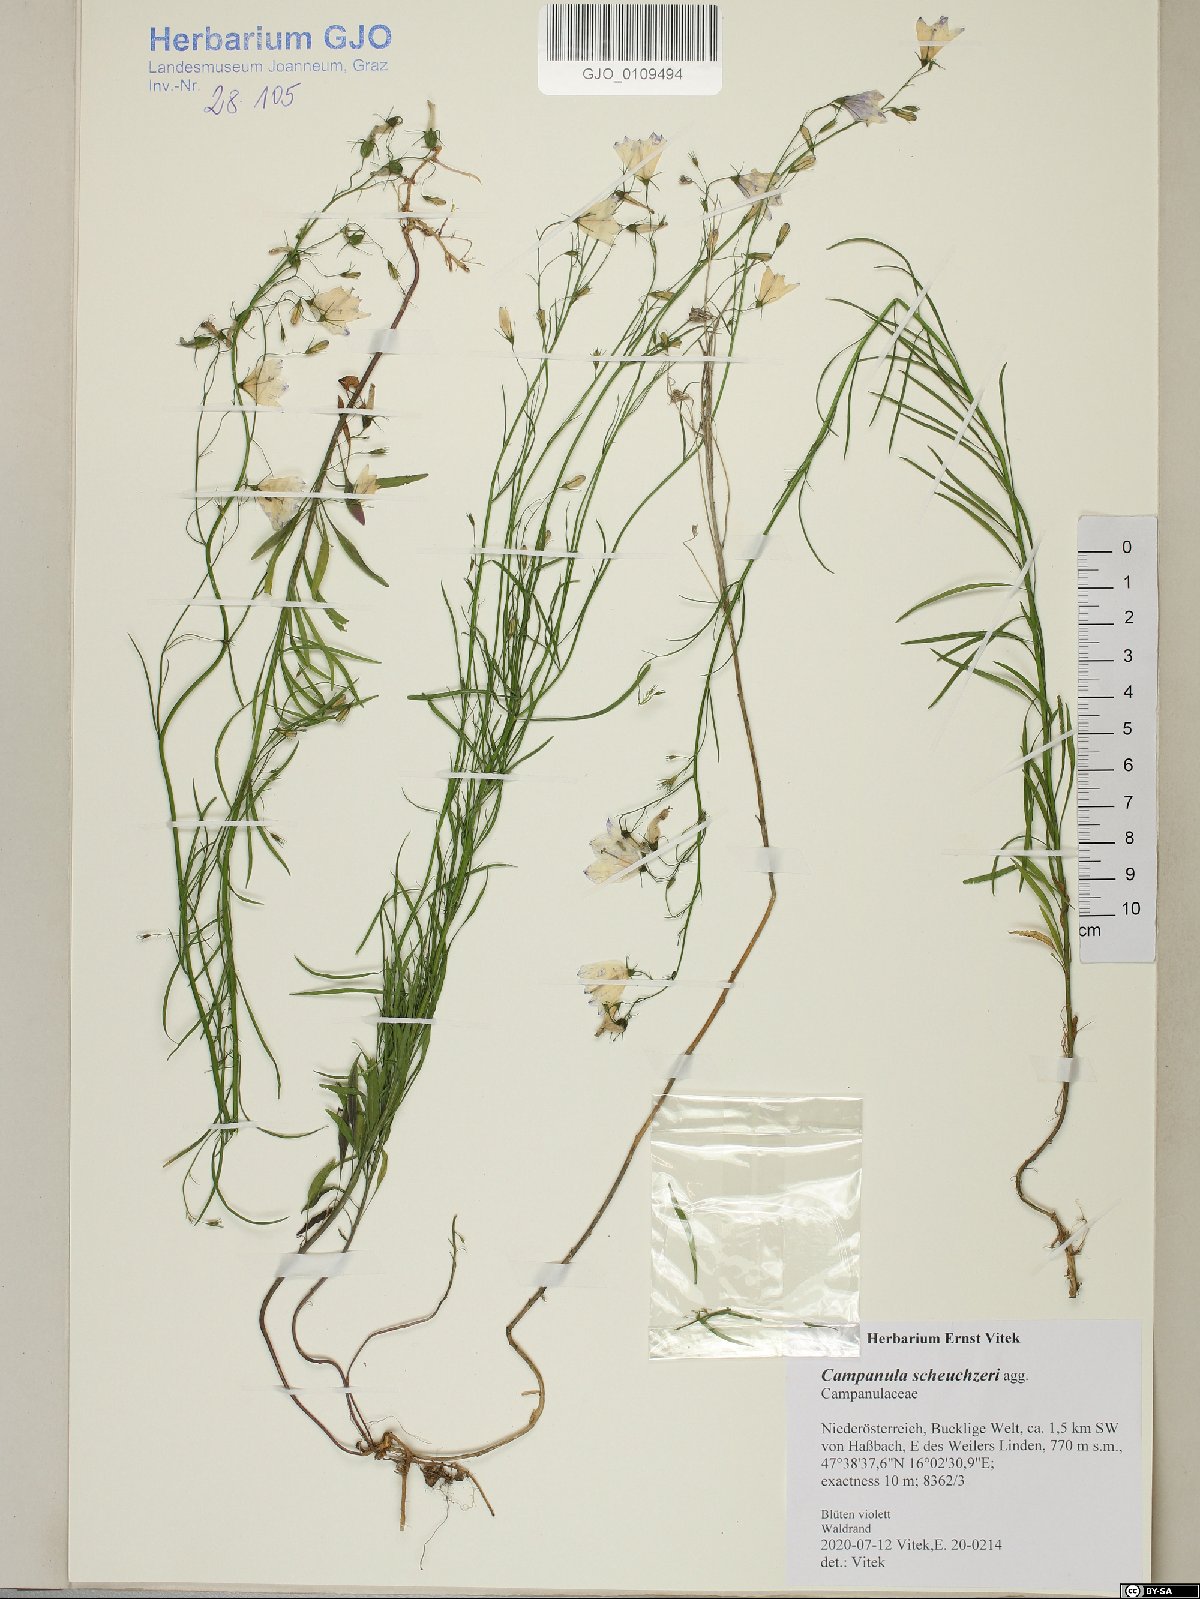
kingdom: Plantae
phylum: Tracheophyta
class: Magnoliopsida
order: Asterales
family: Campanulaceae
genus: Campanula
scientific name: Campanula scheuchzeri
